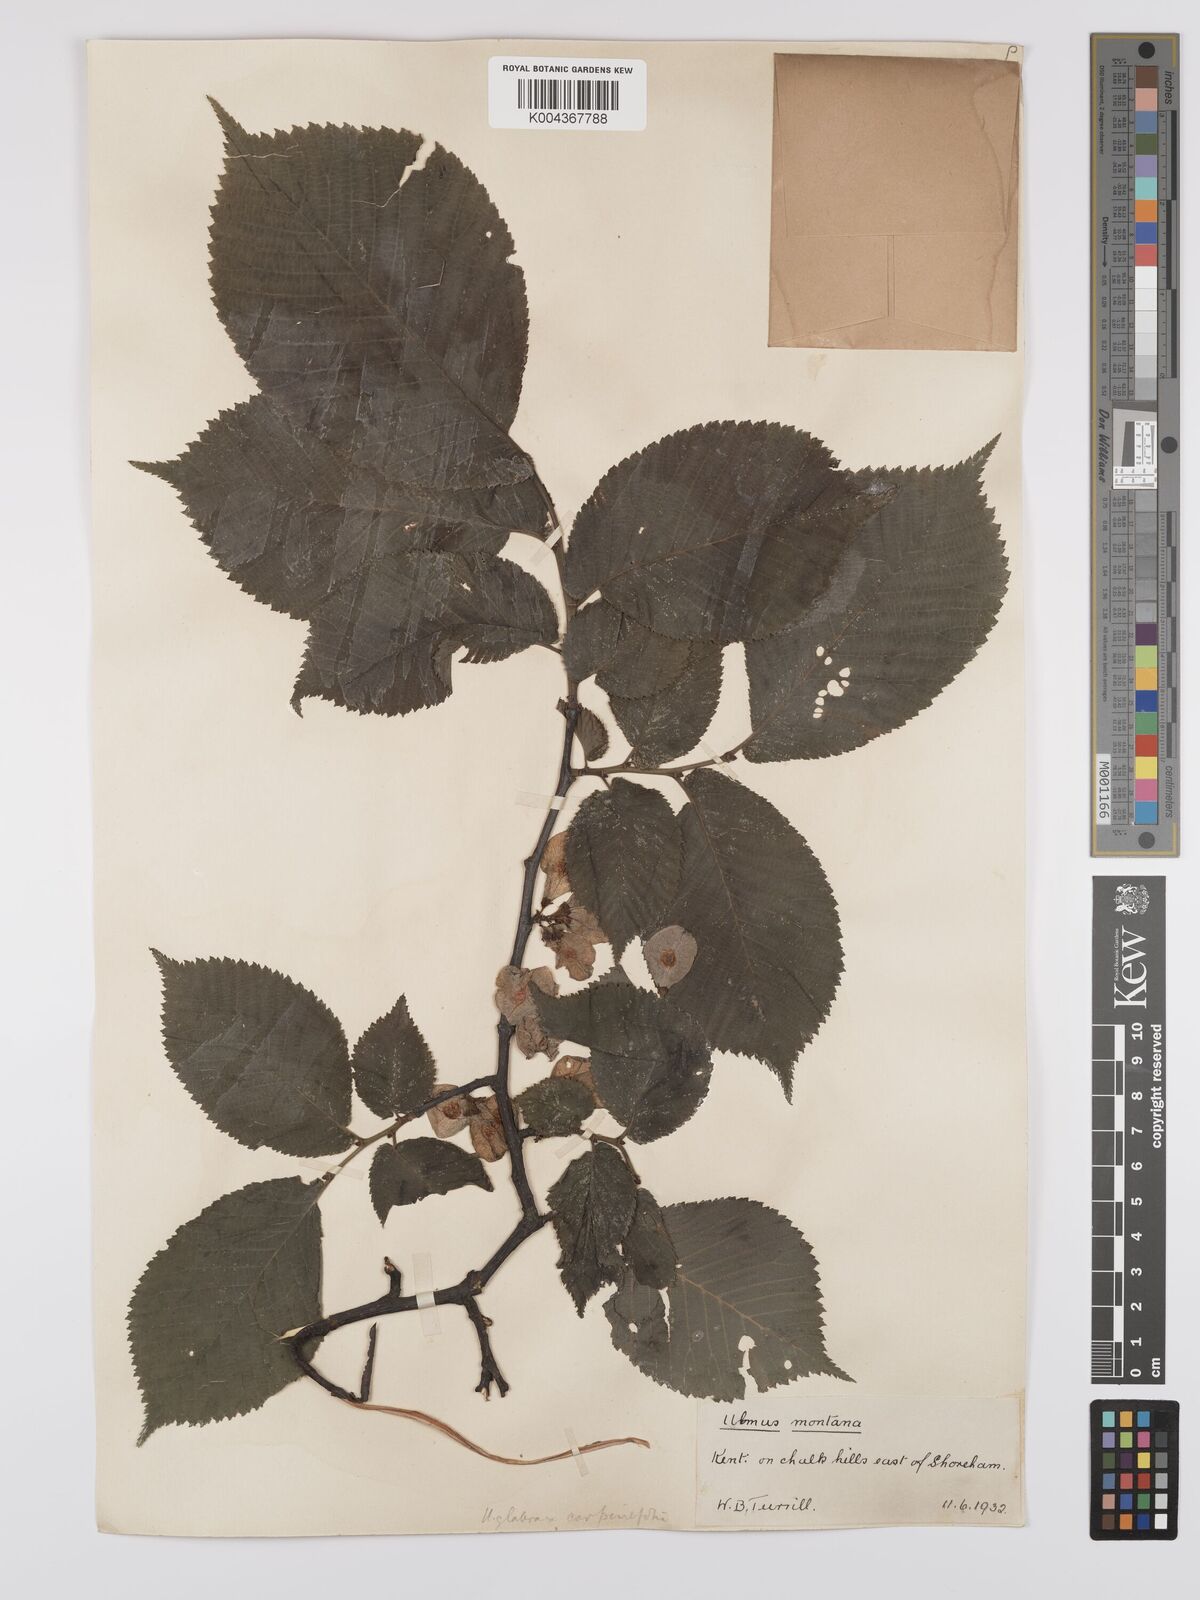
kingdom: Plantae
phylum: Tracheophyta
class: Magnoliopsida
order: Rosales
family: Ulmaceae
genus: Ulmus
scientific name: Ulmus glabra
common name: Wych elm
